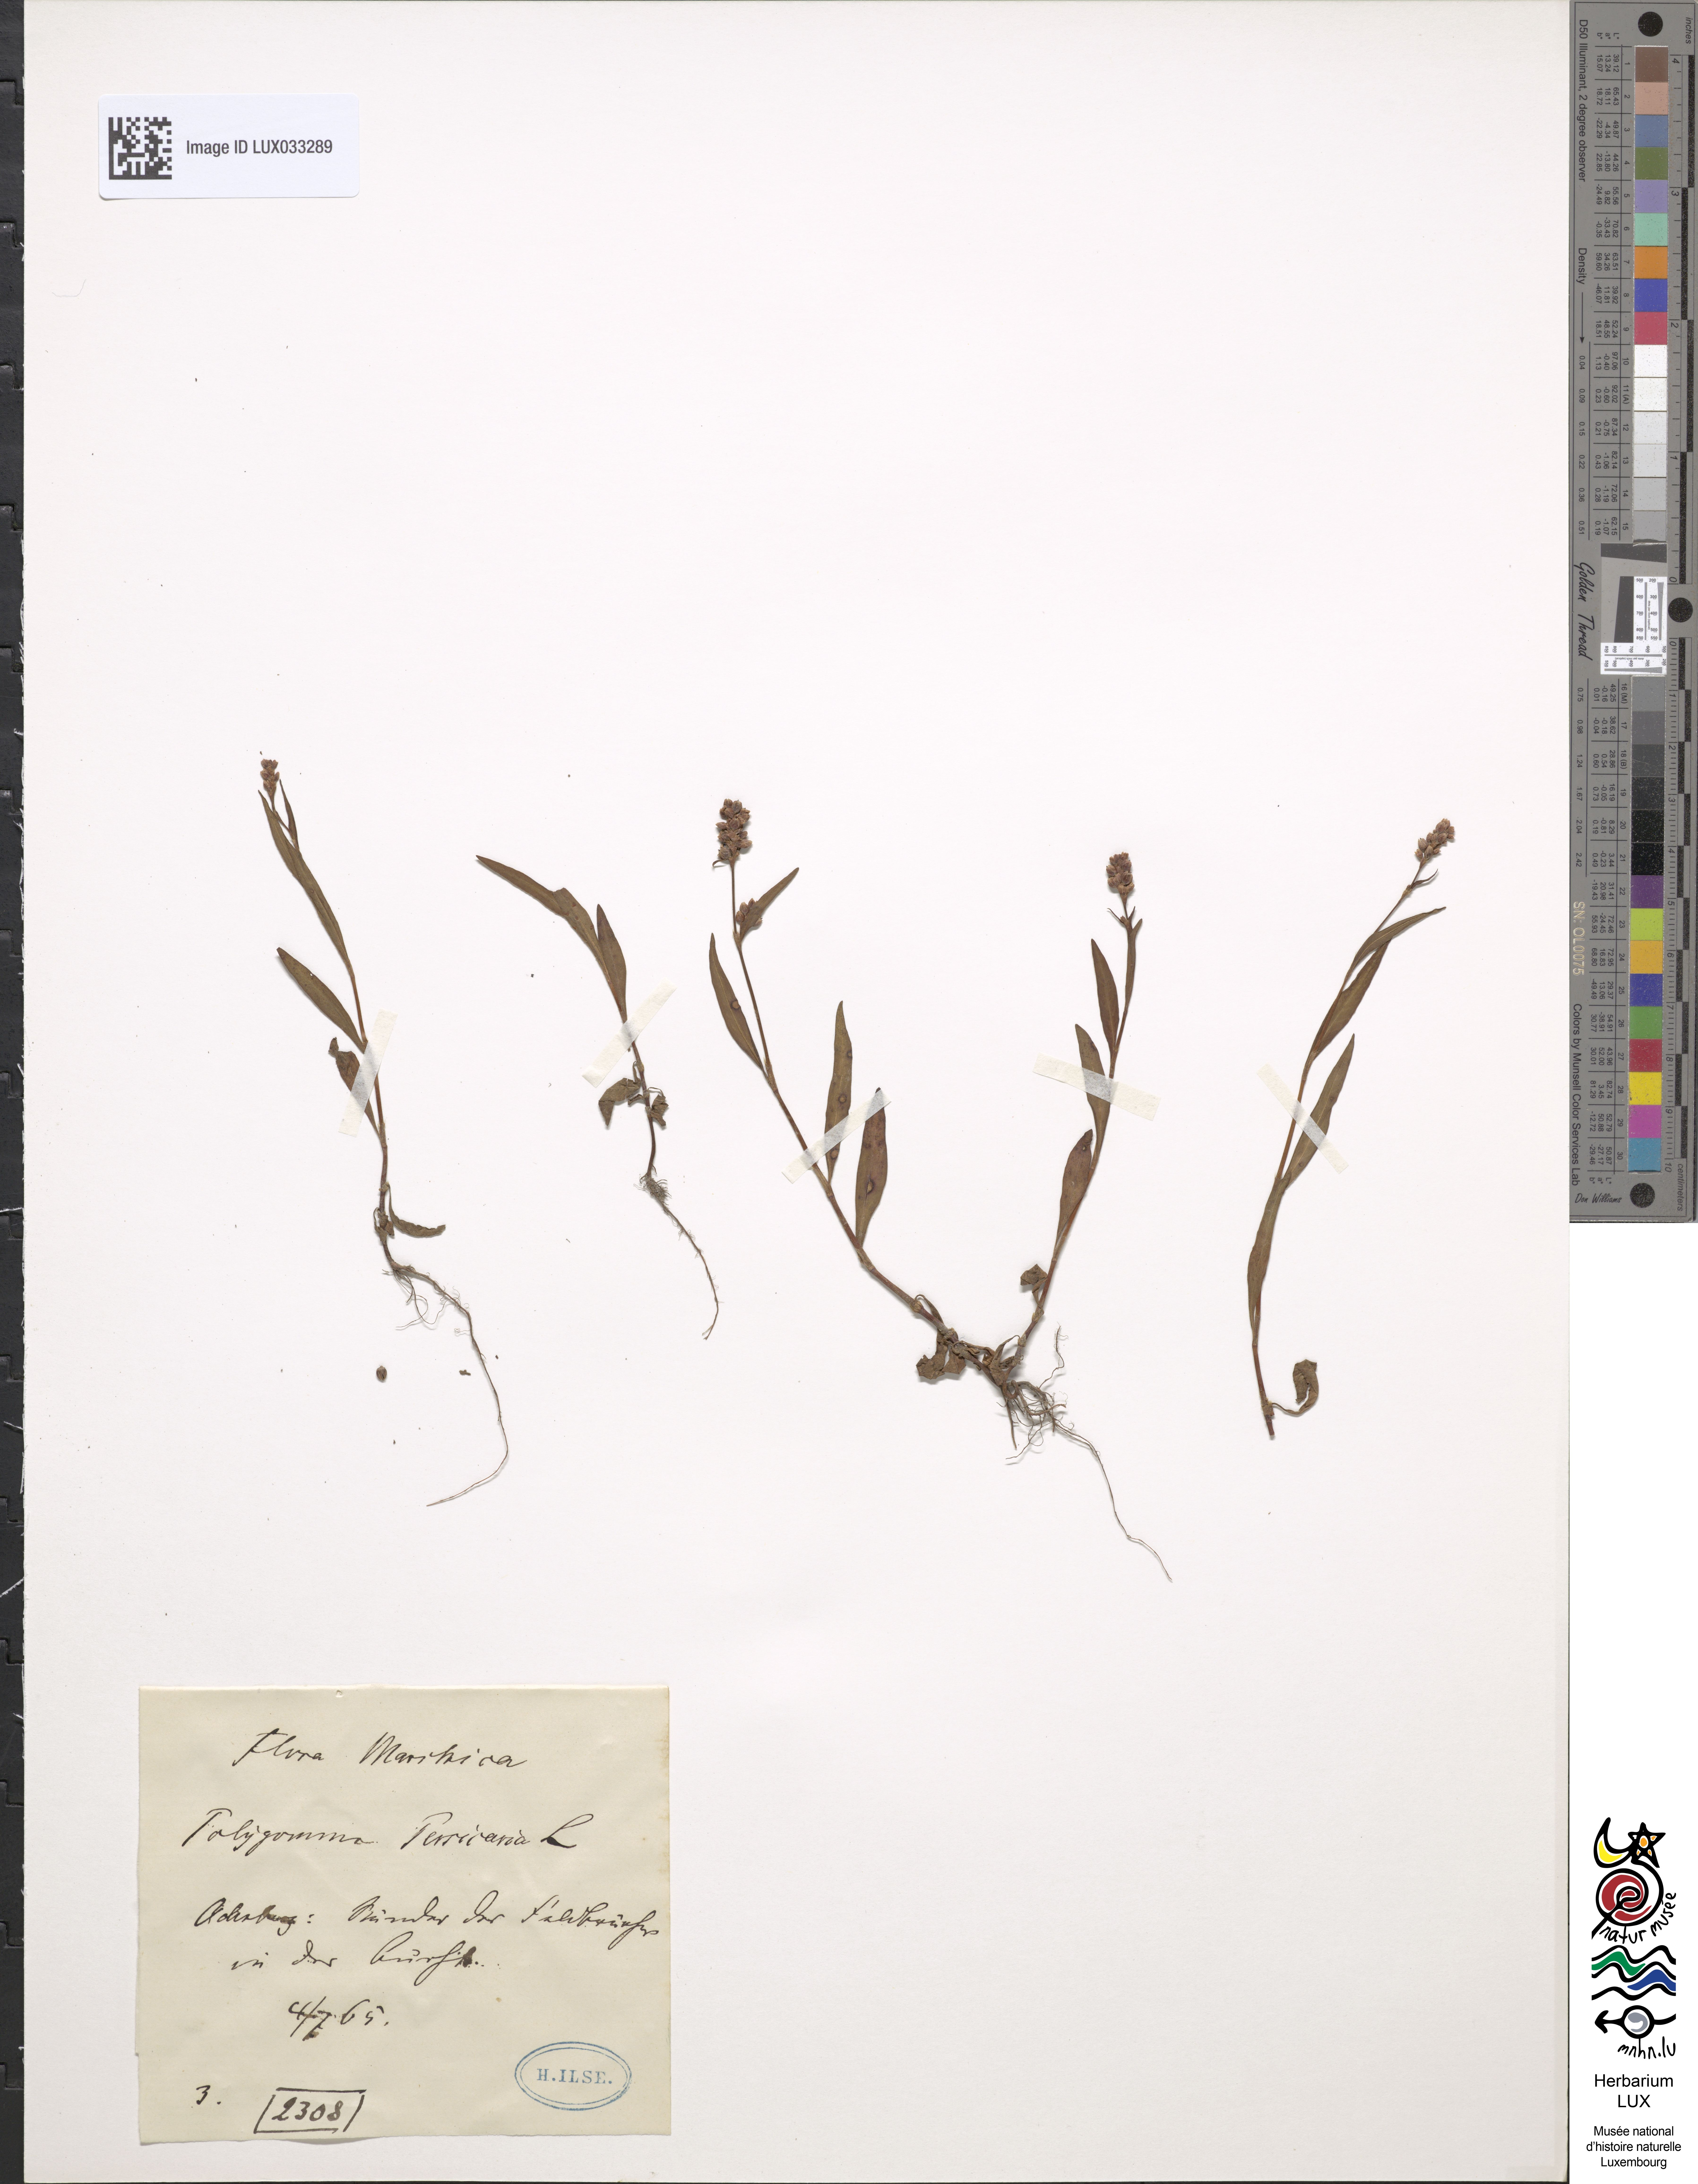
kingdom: Plantae
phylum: Tracheophyta
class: Magnoliopsida
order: Caryophyllales
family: Polygonaceae
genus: Persicaria
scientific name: Persicaria maculosa
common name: Redshank
